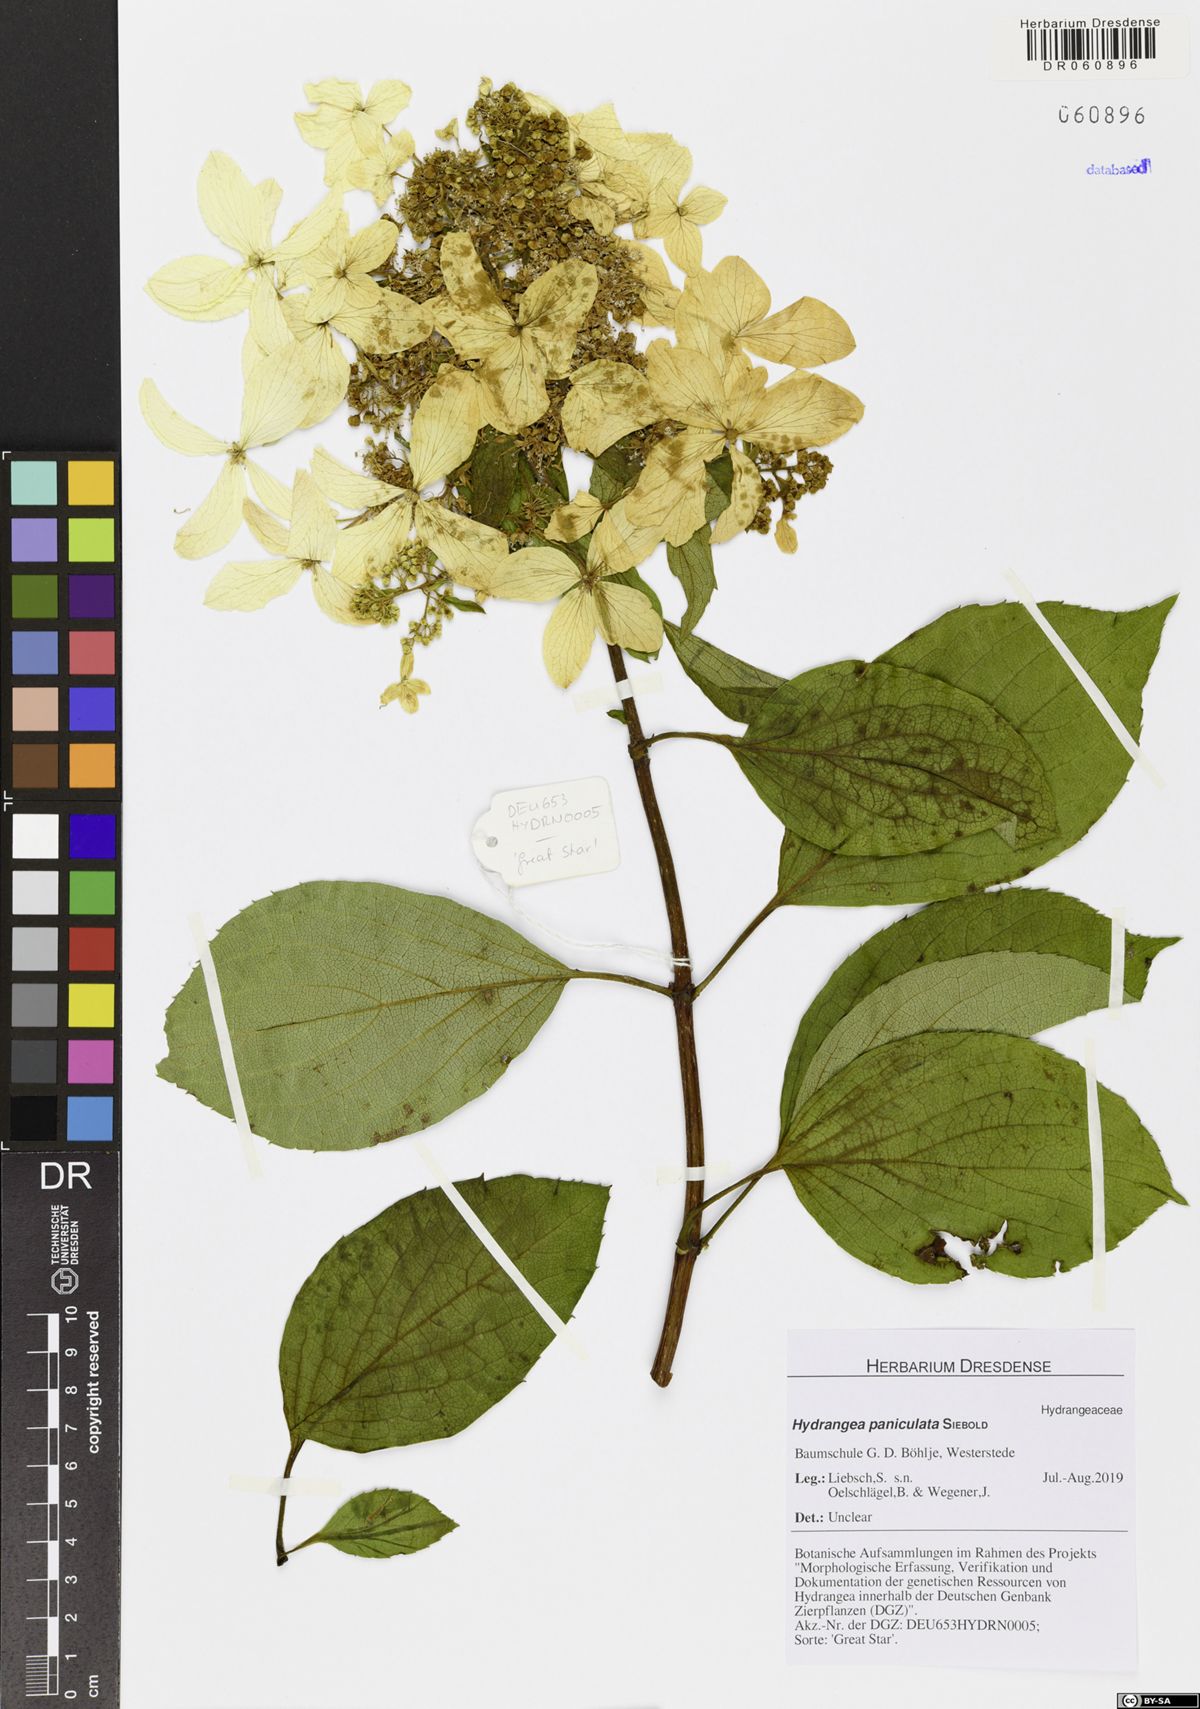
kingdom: Plantae
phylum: Tracheophyta
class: Magnoliopsida
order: Cornales
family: Hydrangeaceae
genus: Hydrangea
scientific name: Hydrangea paniculata
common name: Panicled hydrangea
